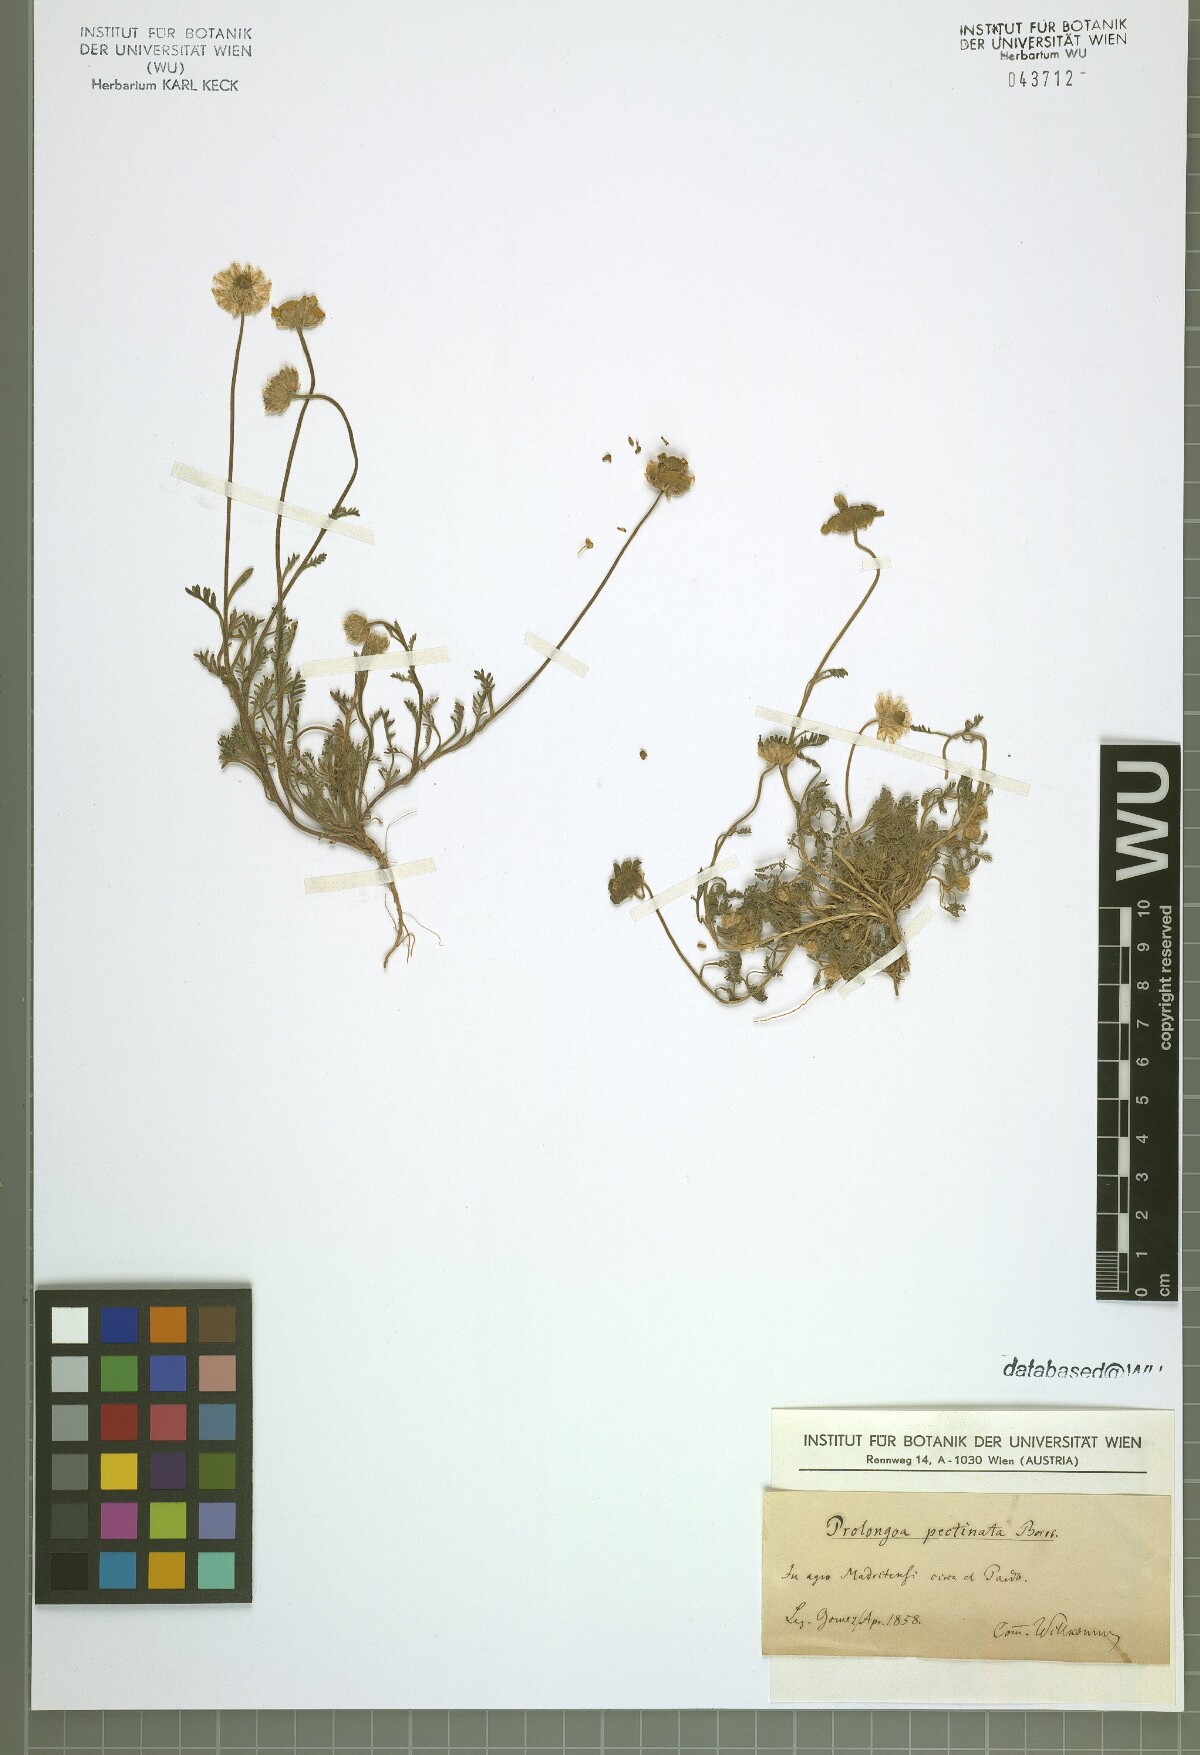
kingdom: Plantae
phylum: Tracheophyta
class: Magnoliopsida
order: Asterales
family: Asteraceae
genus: Leucanthemopsis
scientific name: Leucanthemopsis pectinata
